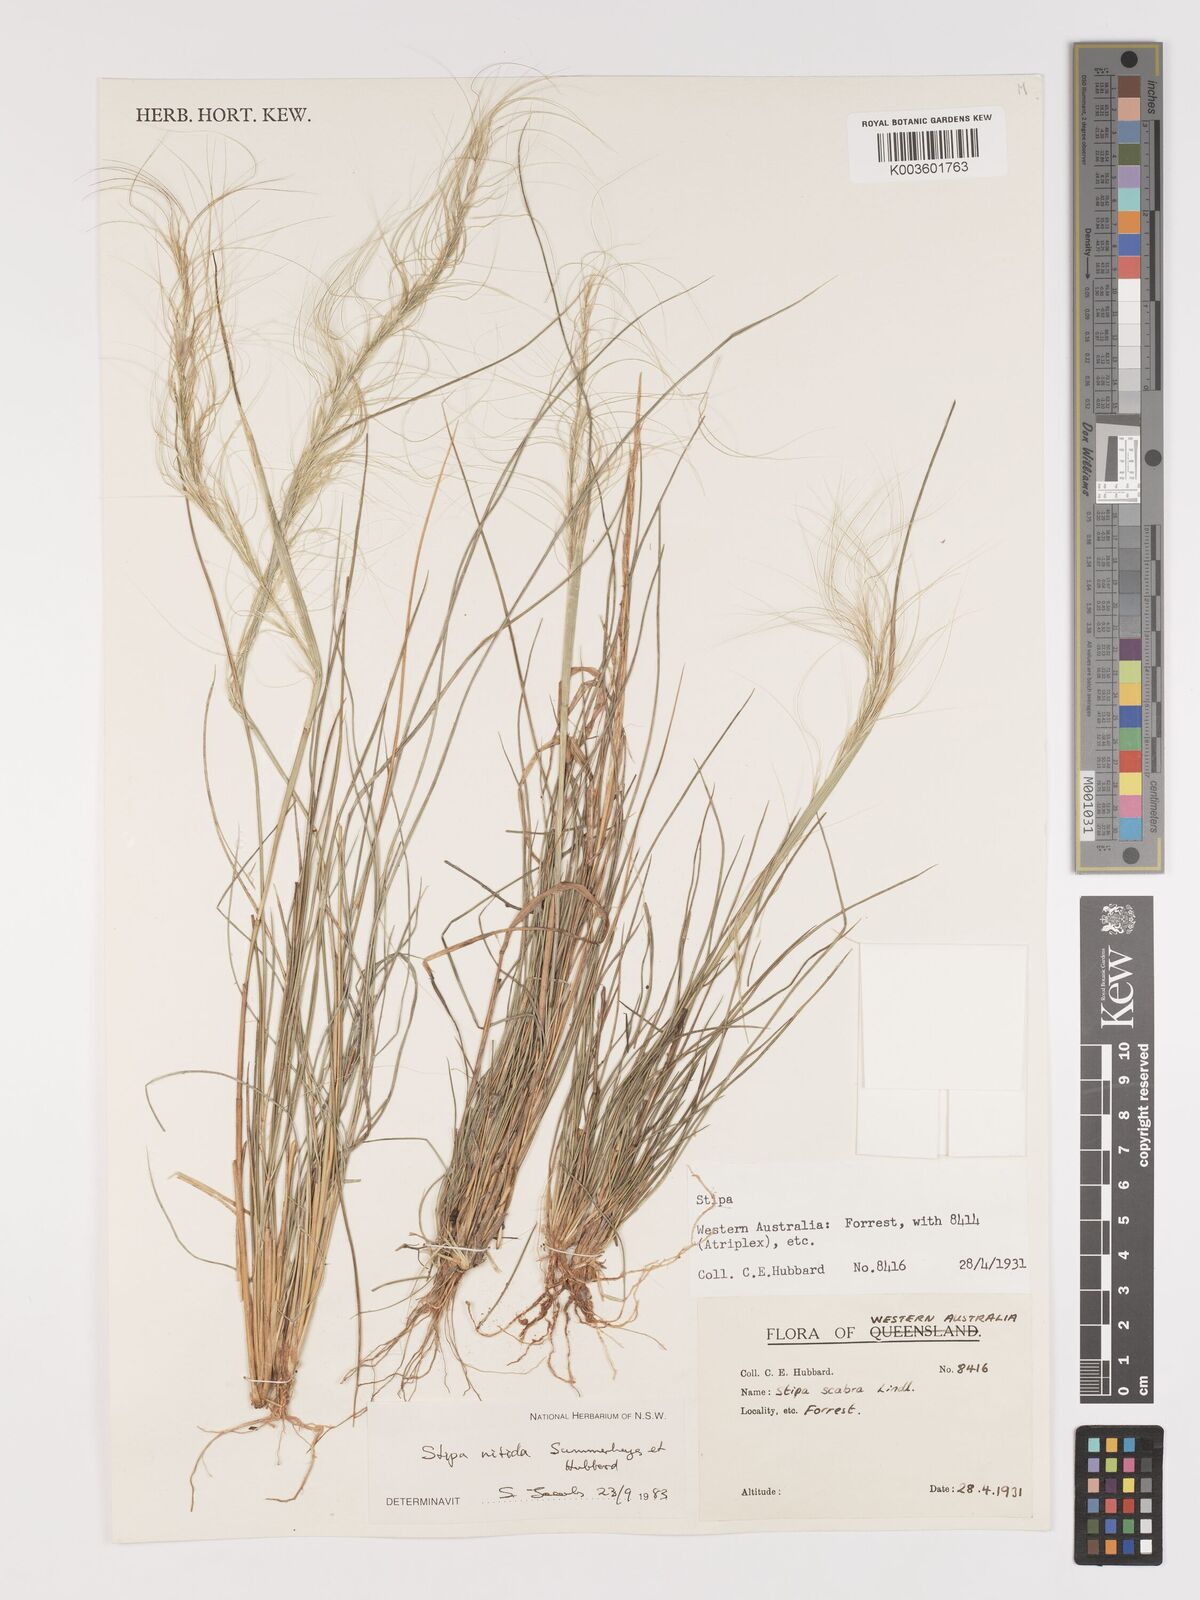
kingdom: Plantae
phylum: Tracheophyta
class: Liliopsida
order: Poales
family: Poaceae
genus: Austrostipa
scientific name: Austrostipa nitida
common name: Balcarra grass
